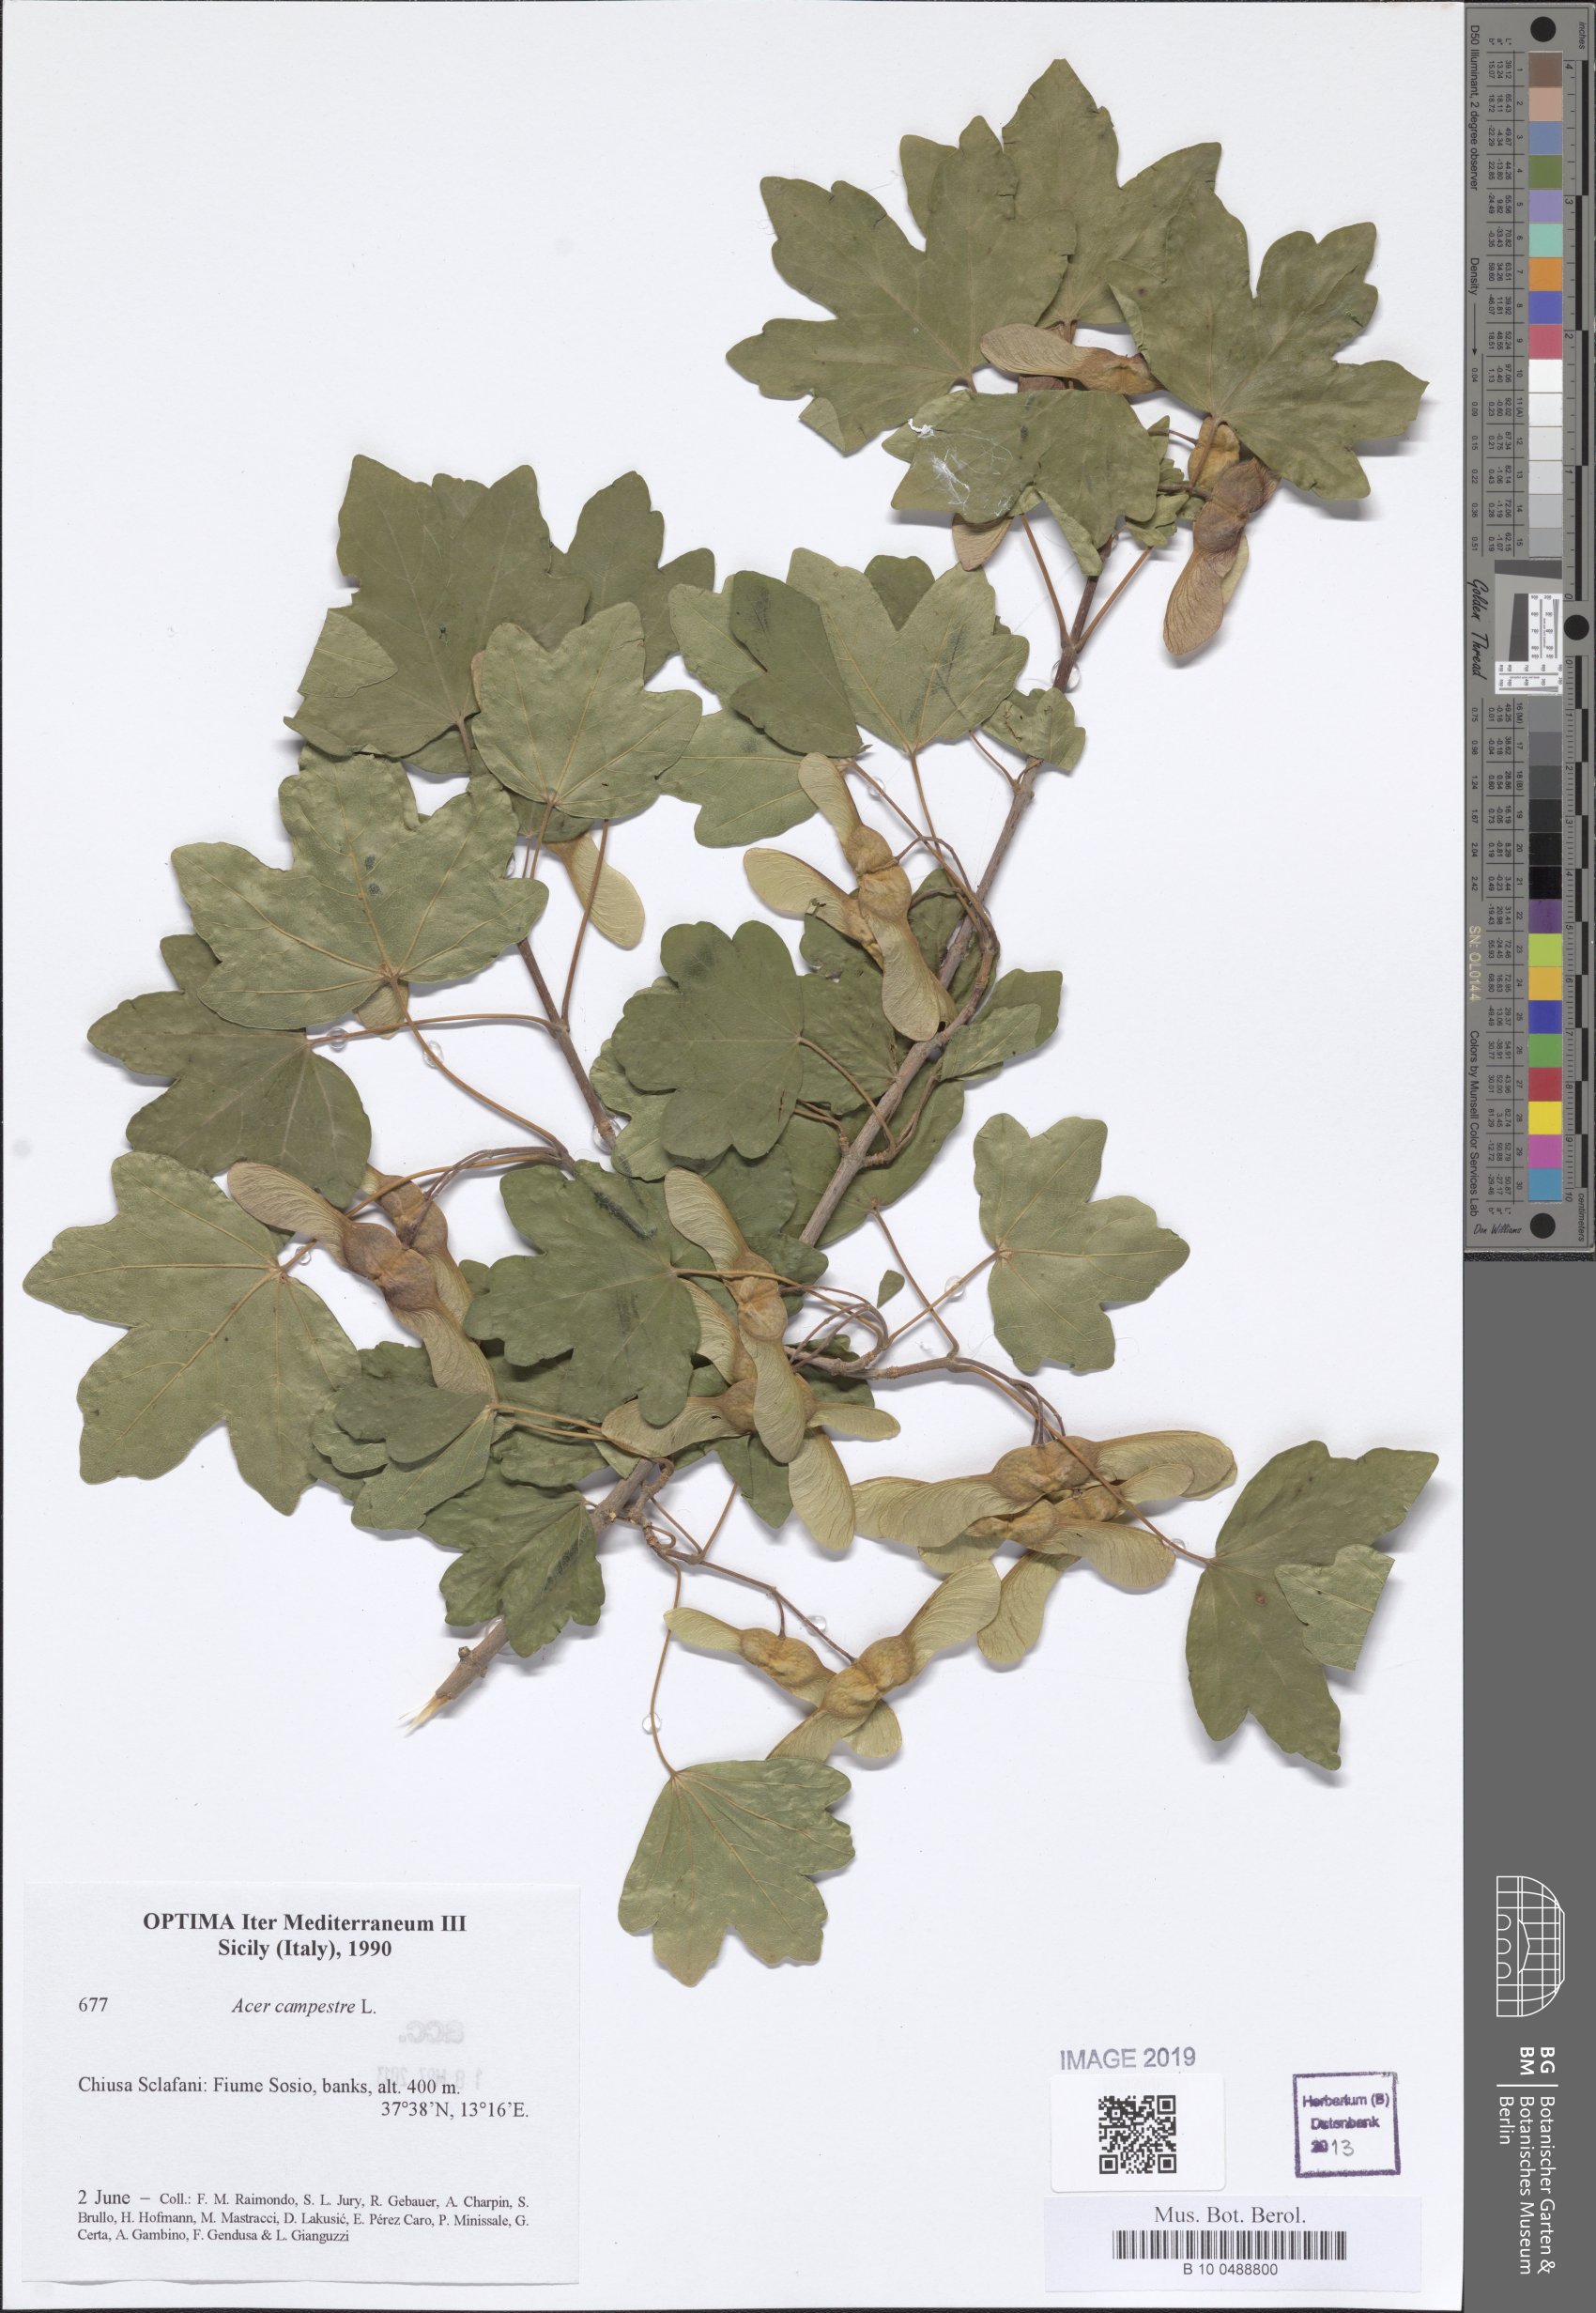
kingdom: Plantae
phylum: Tracheophyta
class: Magnoliopsida
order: Sapindales
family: Sapindaceae
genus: Acer
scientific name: Acer campestre
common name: Field maple
